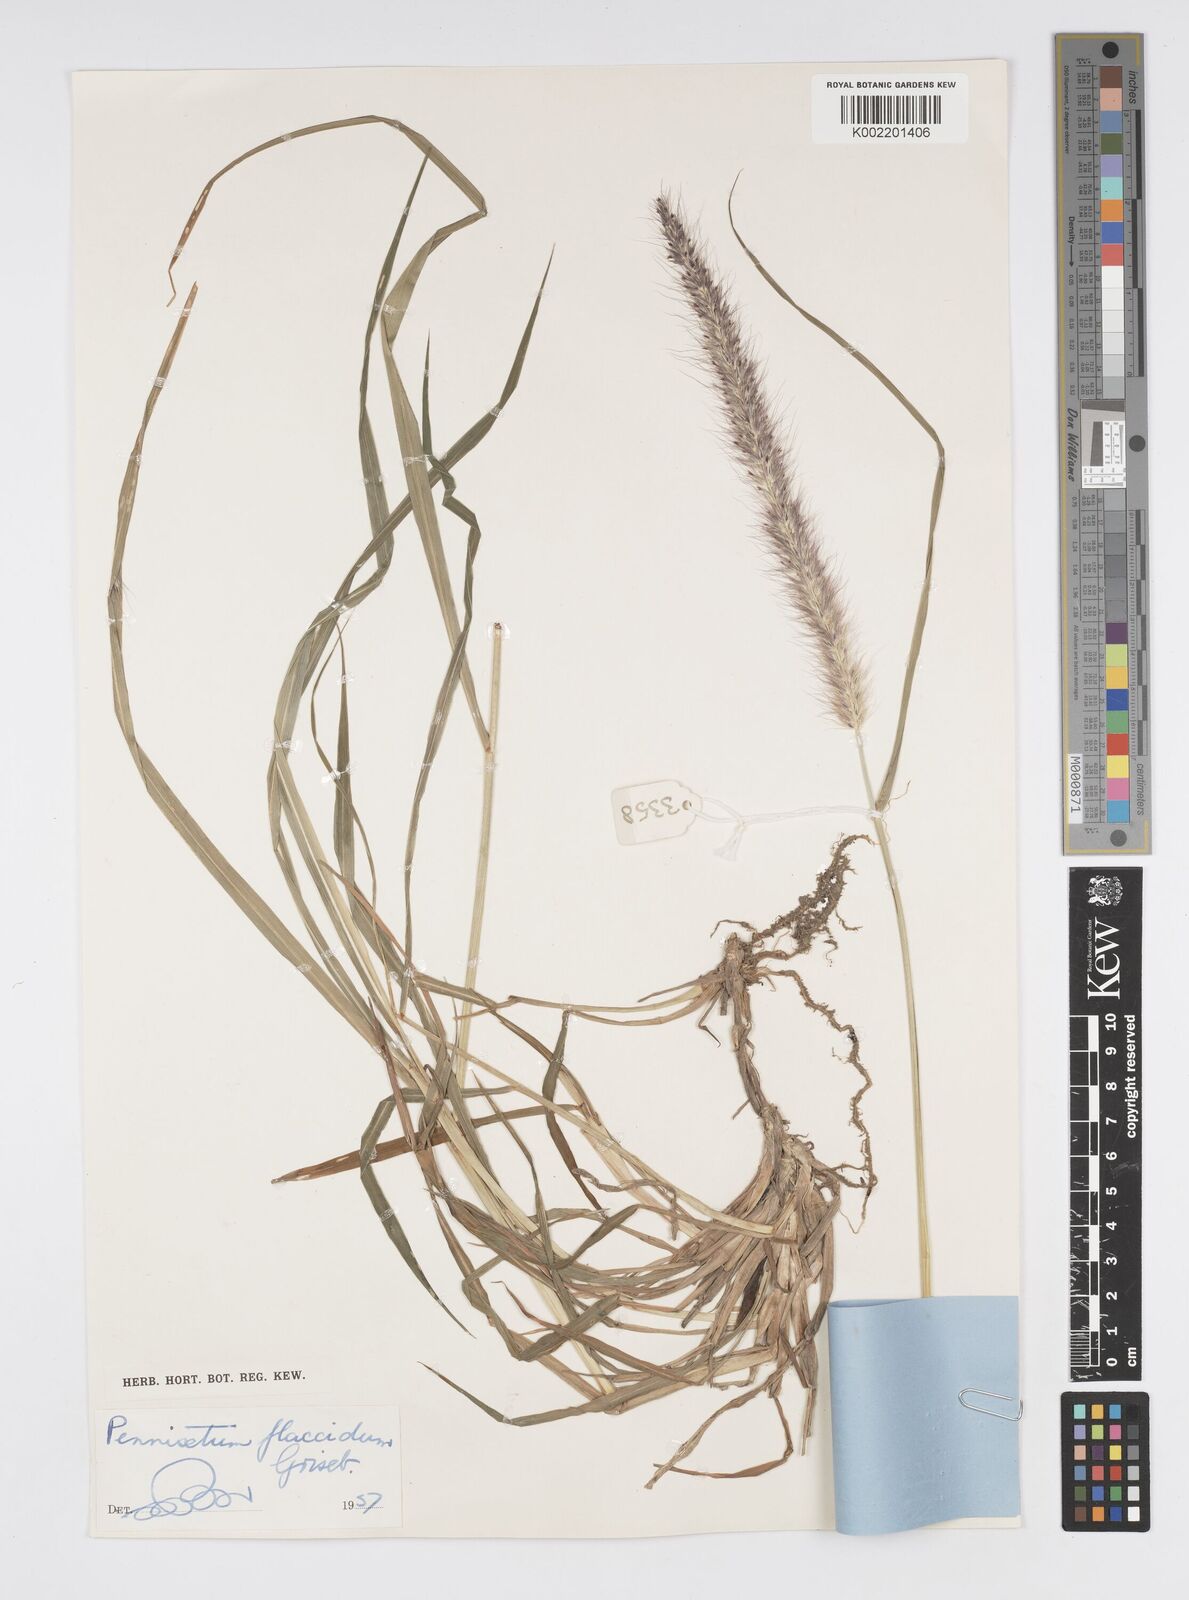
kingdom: Plantae
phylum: Tracheophyta
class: Liliopsida
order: Poales
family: Poaceae
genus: Cenchrus
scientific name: Cenchrus flaccidus
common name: Flaccid grass
